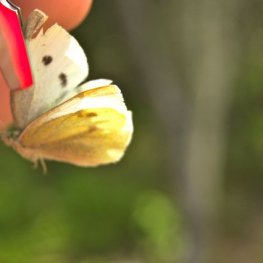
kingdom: Animalia
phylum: Arthropoda
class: Insecta
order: Lepidoptera
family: Pieridae
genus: Pieris
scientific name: Pieris rapae
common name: Cabbage White
